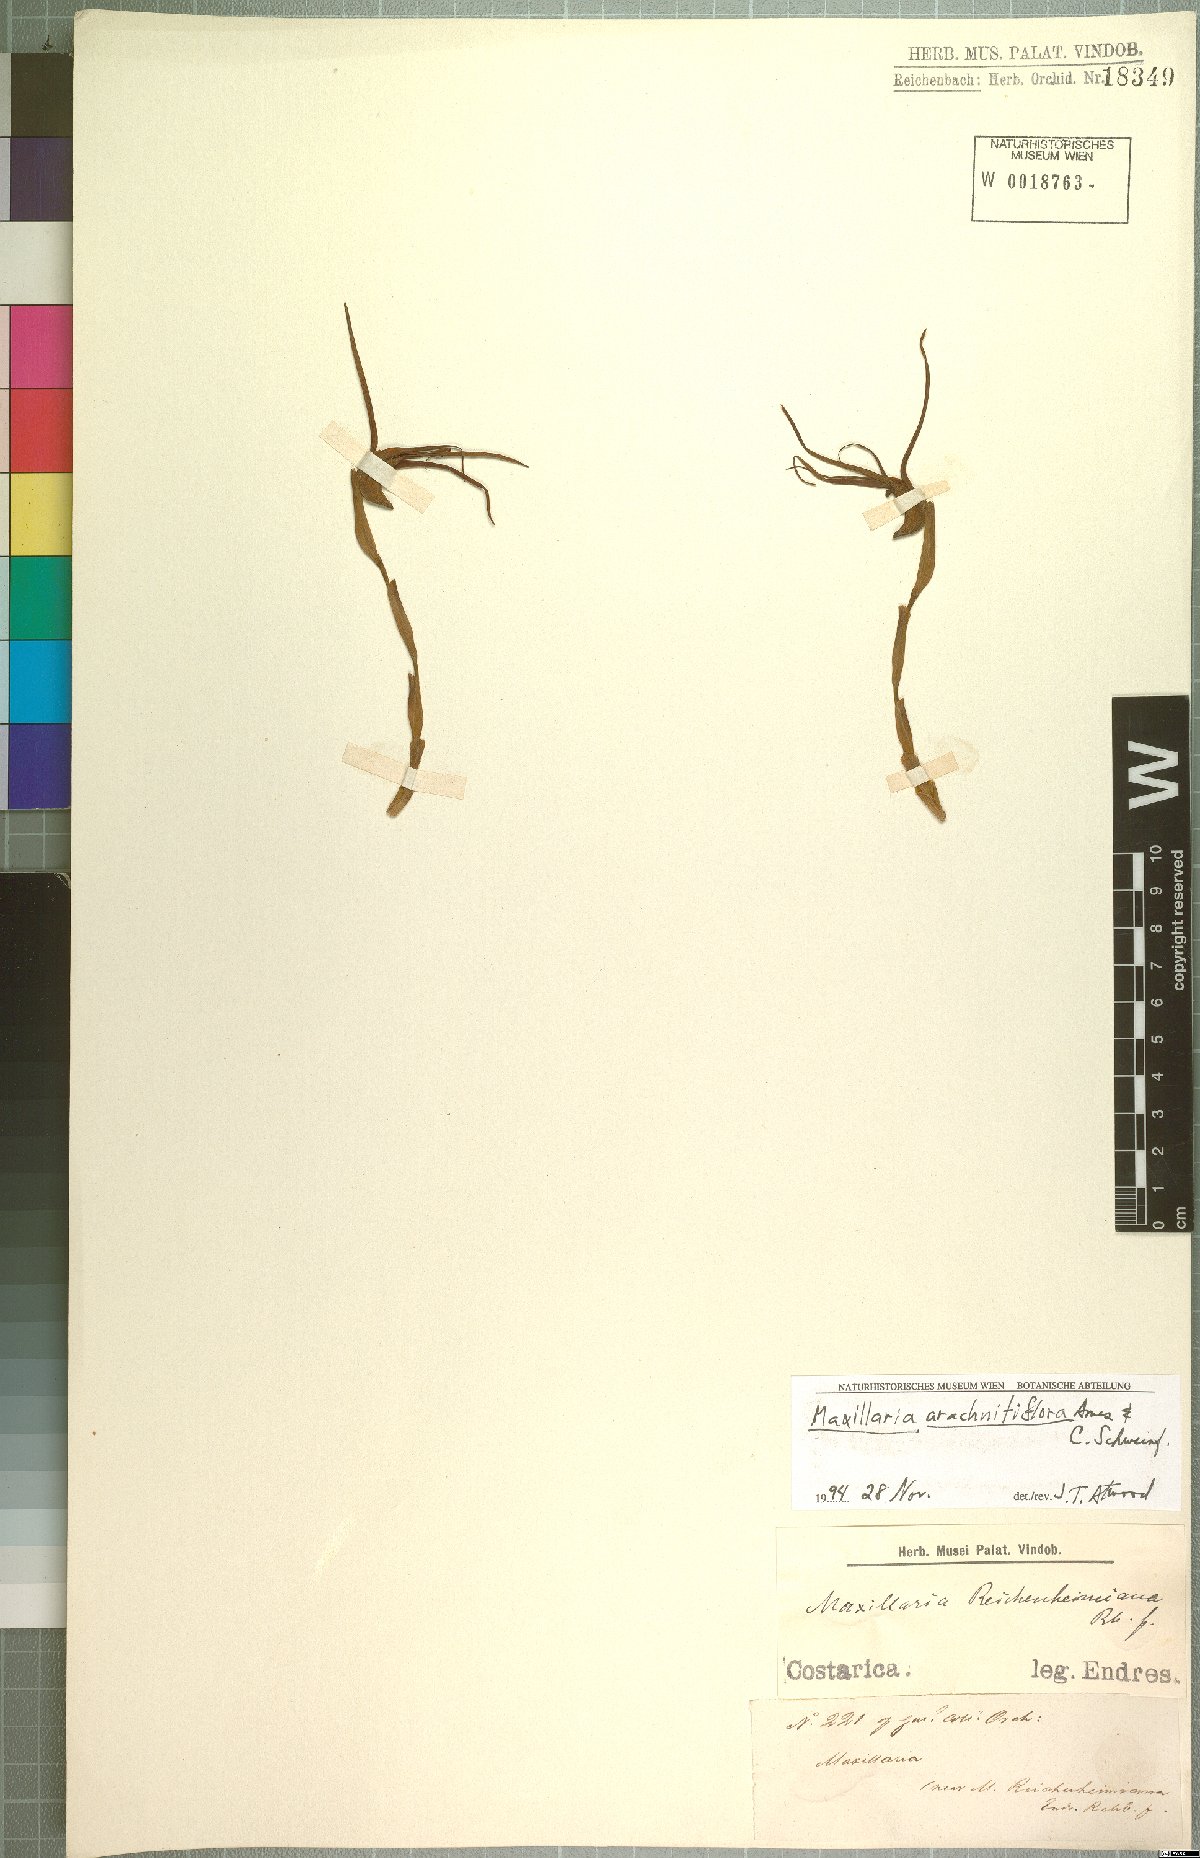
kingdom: Plantae
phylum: Tracheophyta
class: Liliopsida
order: Asparagales
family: Orchidaceae
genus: Maxillaria
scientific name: Maxillaria arachnitiflora
